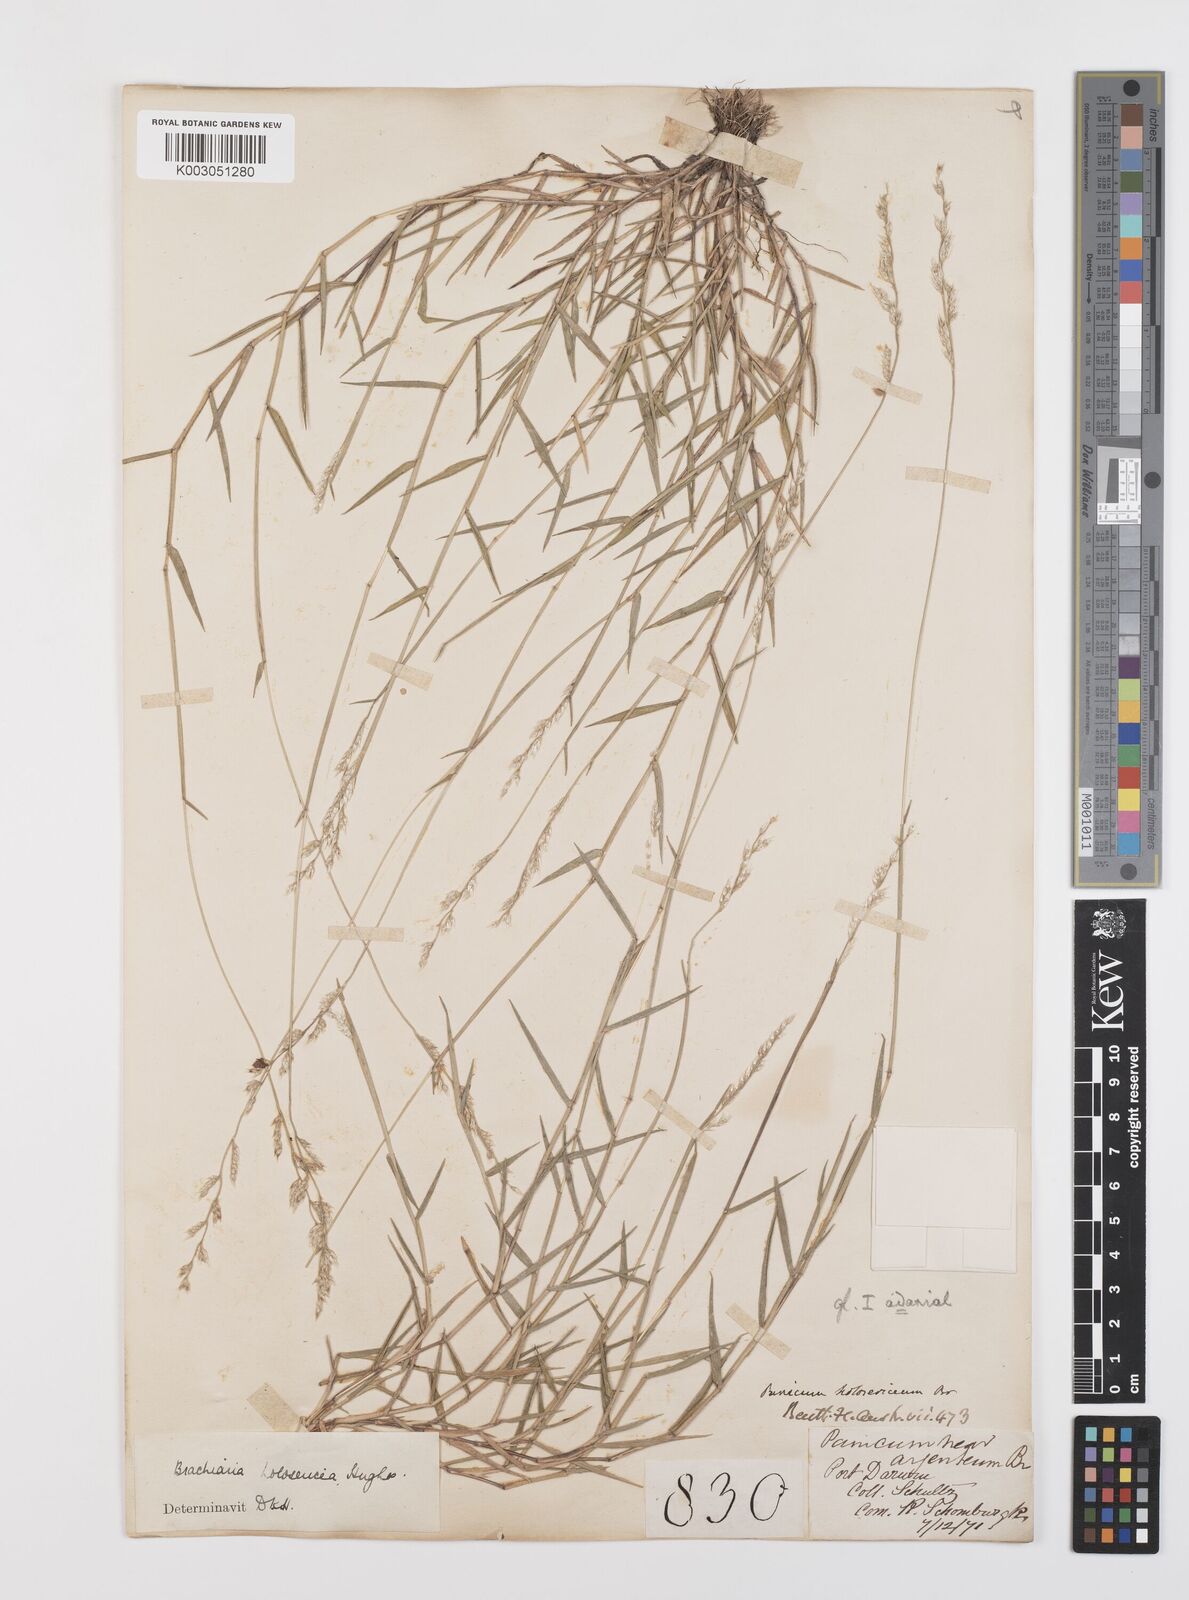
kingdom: Plantae
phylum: Tracheophyta
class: Liliopsida
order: Poales
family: Poaceae
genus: Urochloa
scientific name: Urochloa holosericea
